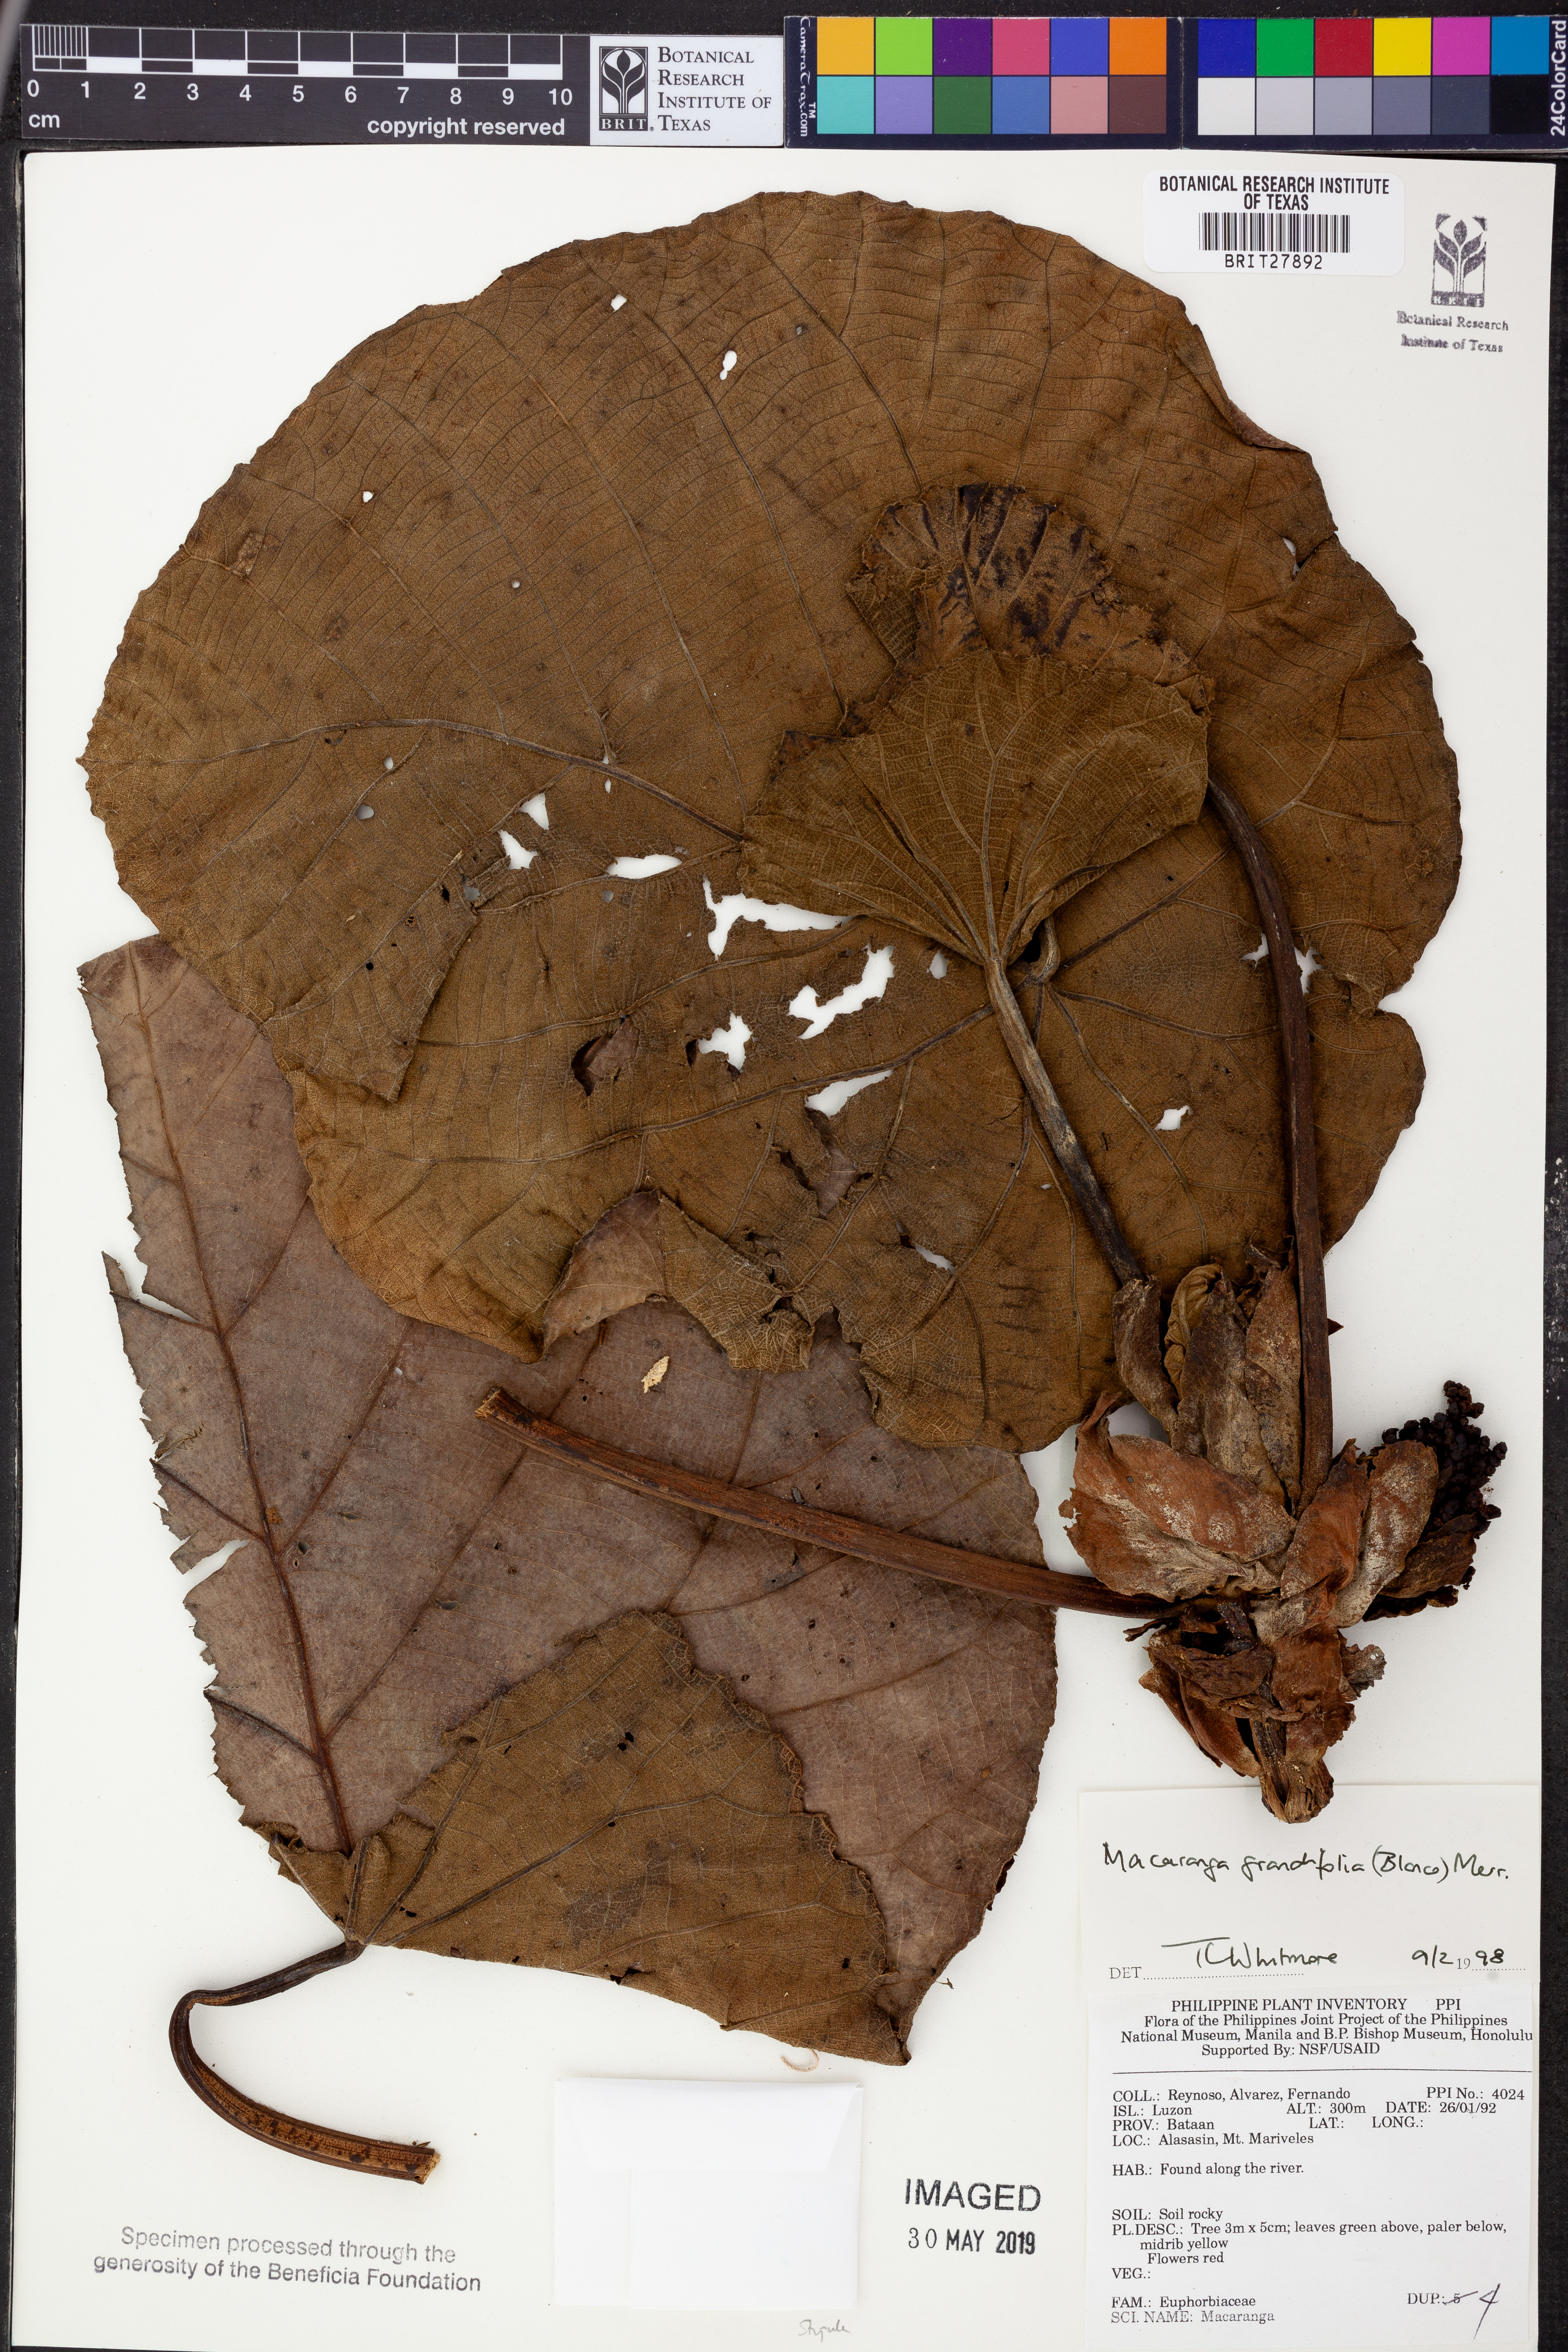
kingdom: Plantae
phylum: Tracheophyta
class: Magnoliopsida
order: Malpighiales
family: Euphorbiaceae
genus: Macaranga
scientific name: Macaranga grandifolia
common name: Coraltree
